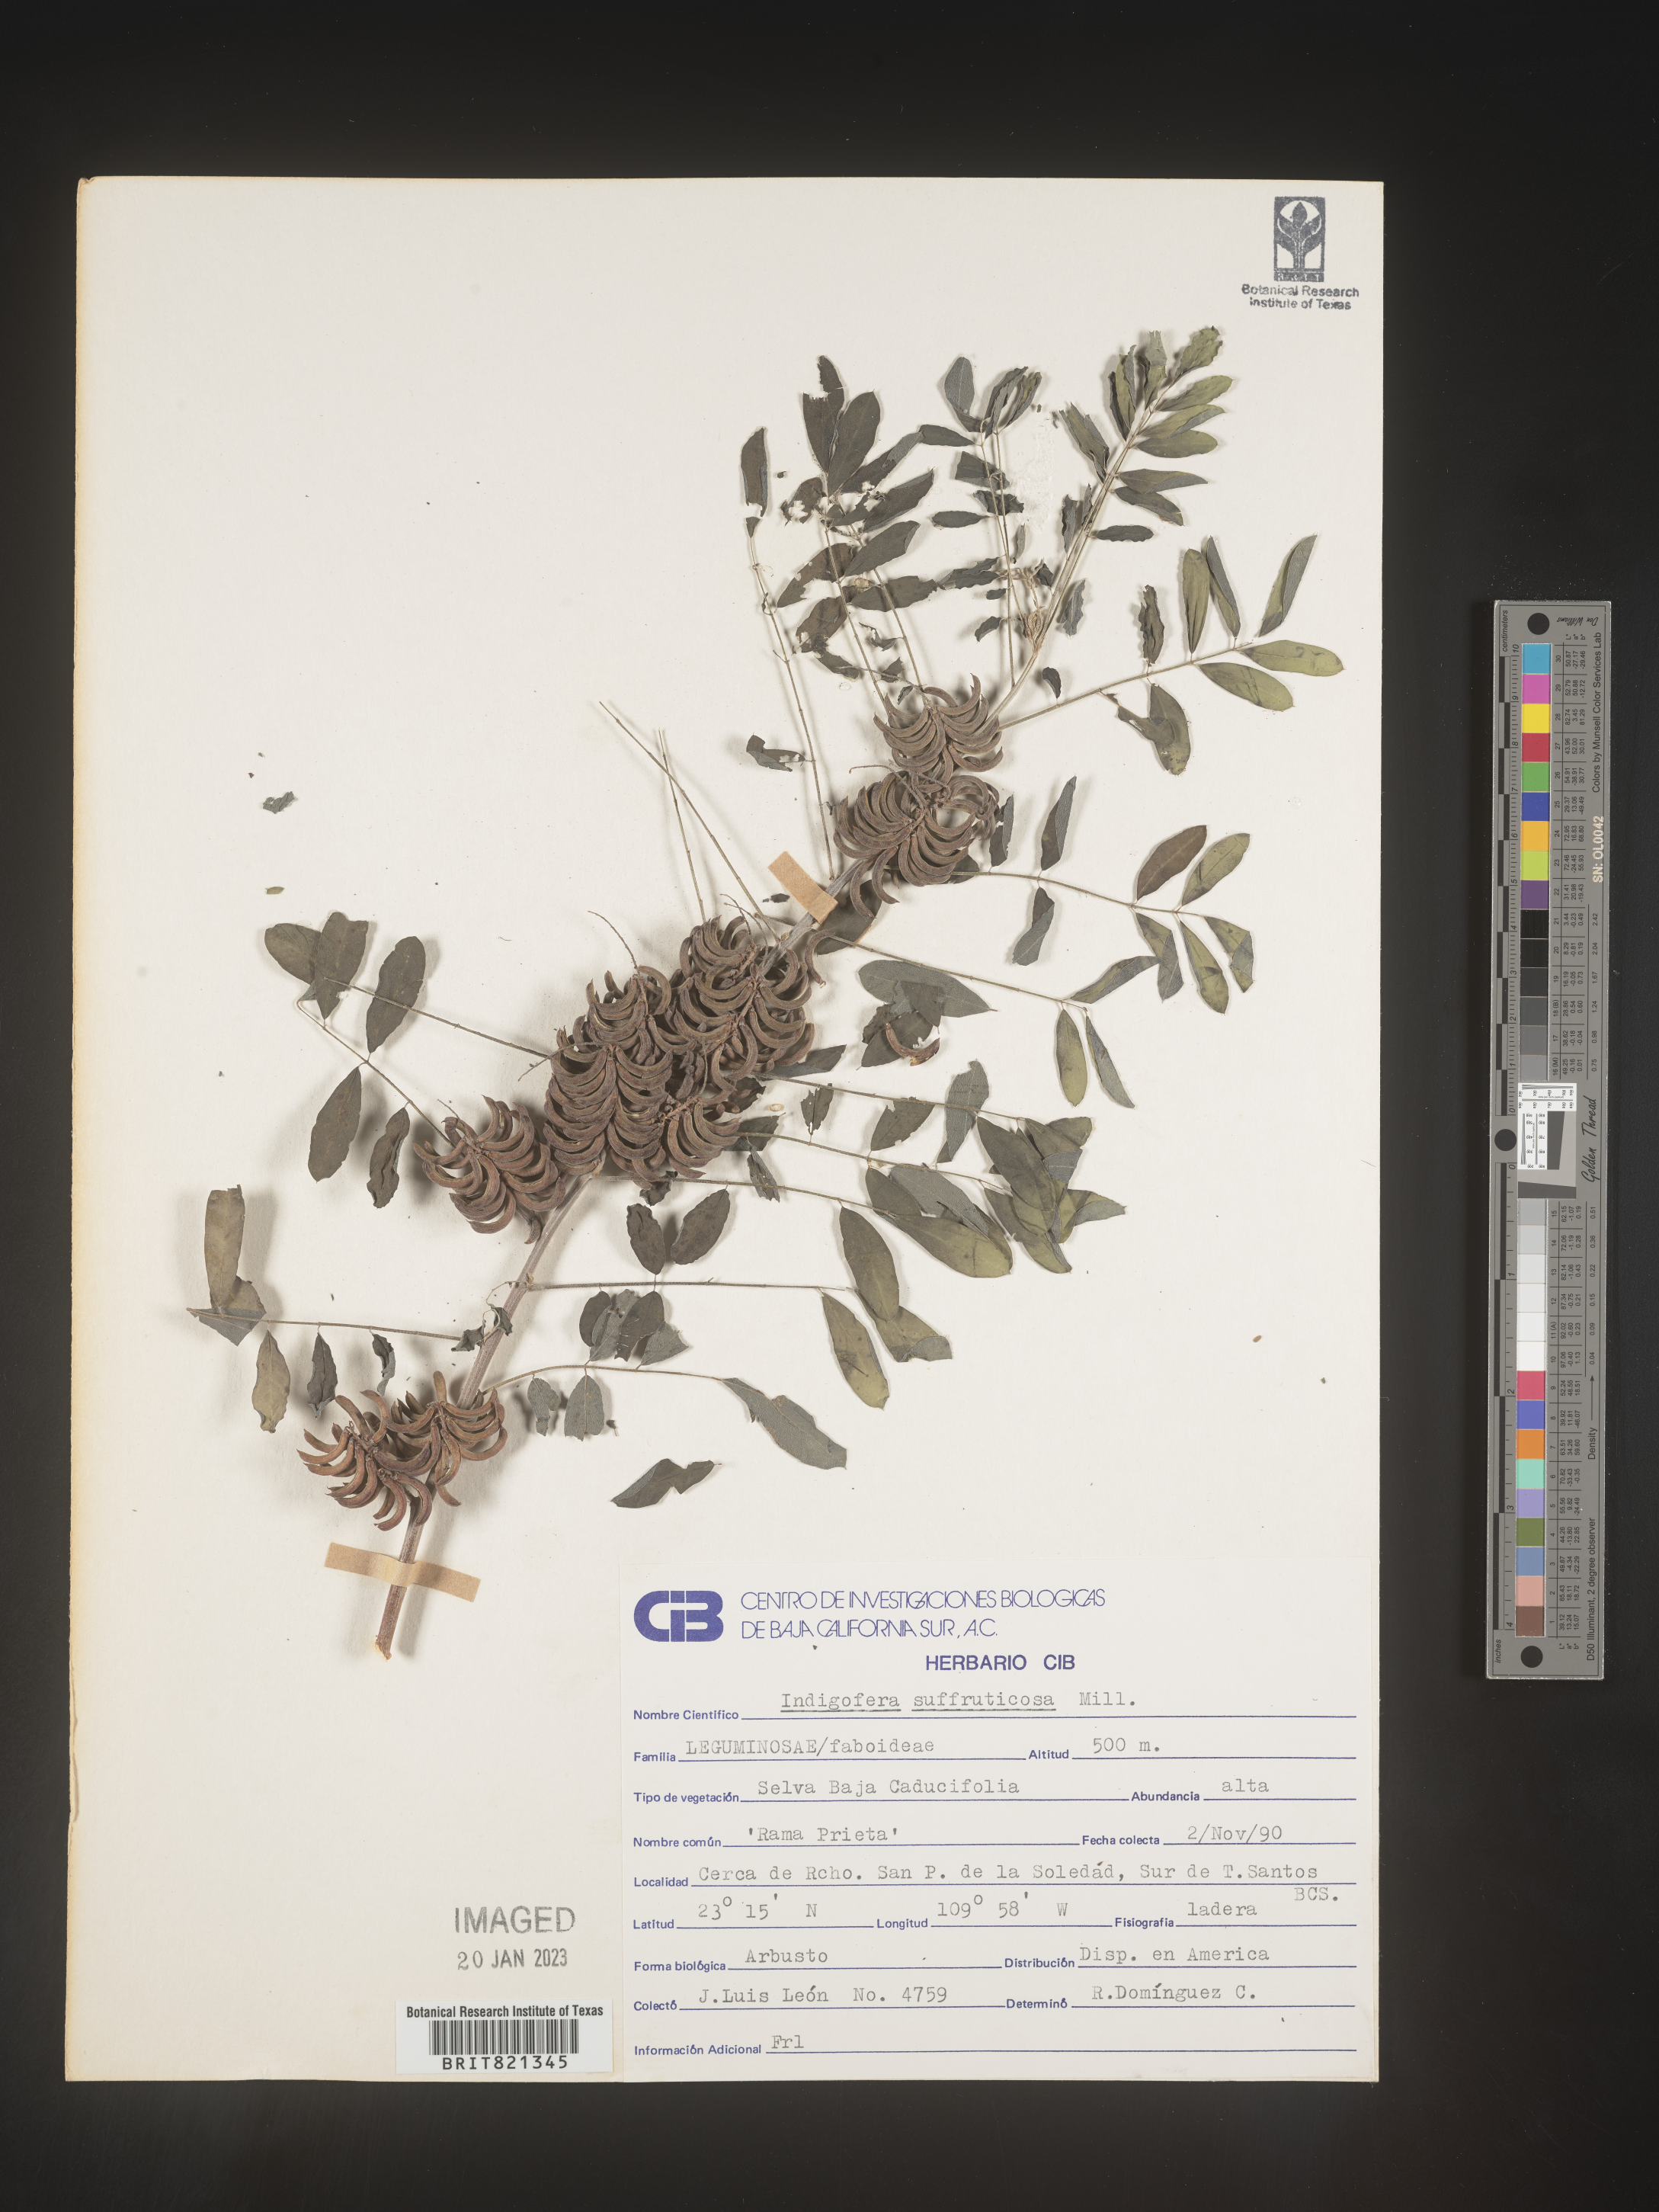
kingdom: Plantae
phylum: Tracheophyta
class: Magnoliopsida
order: Fabales
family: Fabaceae
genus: Inga
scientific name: Inga
